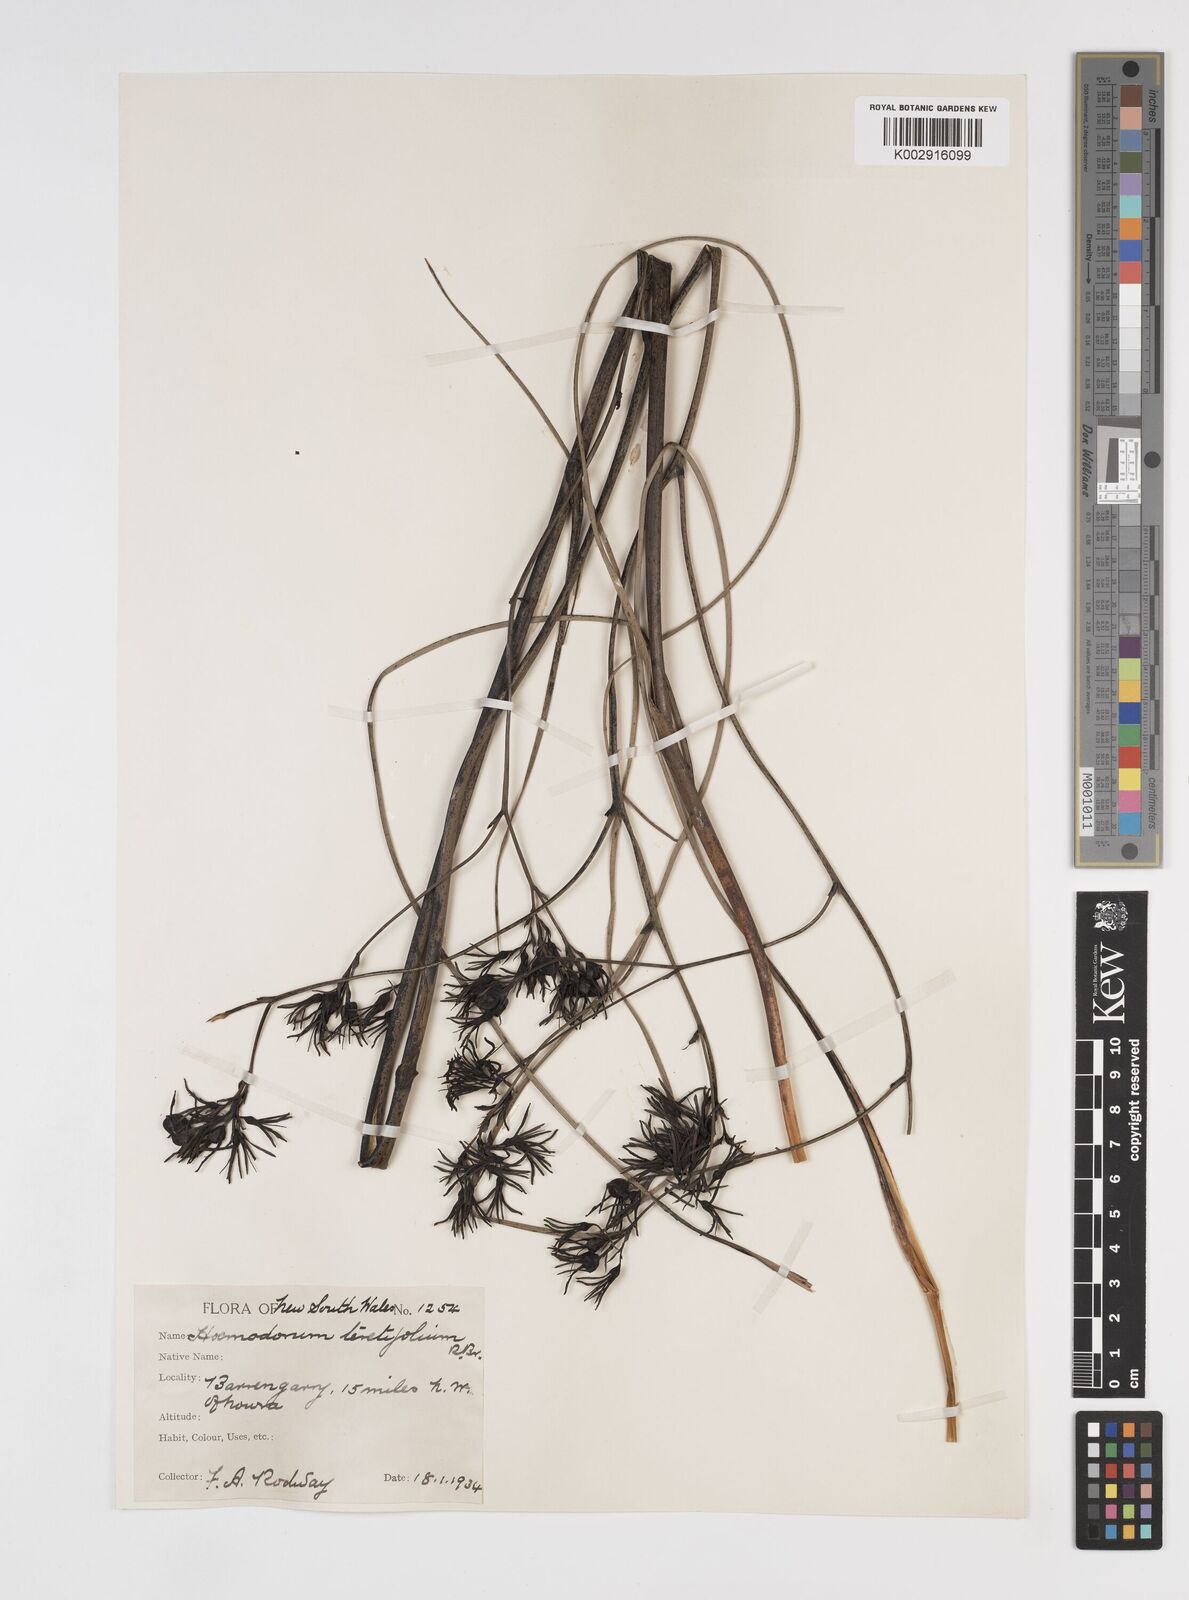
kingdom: Plantae
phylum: Tracheophyta
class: Liliopsida
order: Commelinales
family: Haemodoraceae
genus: Haemodorum
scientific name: Haemodorum corymbosum
